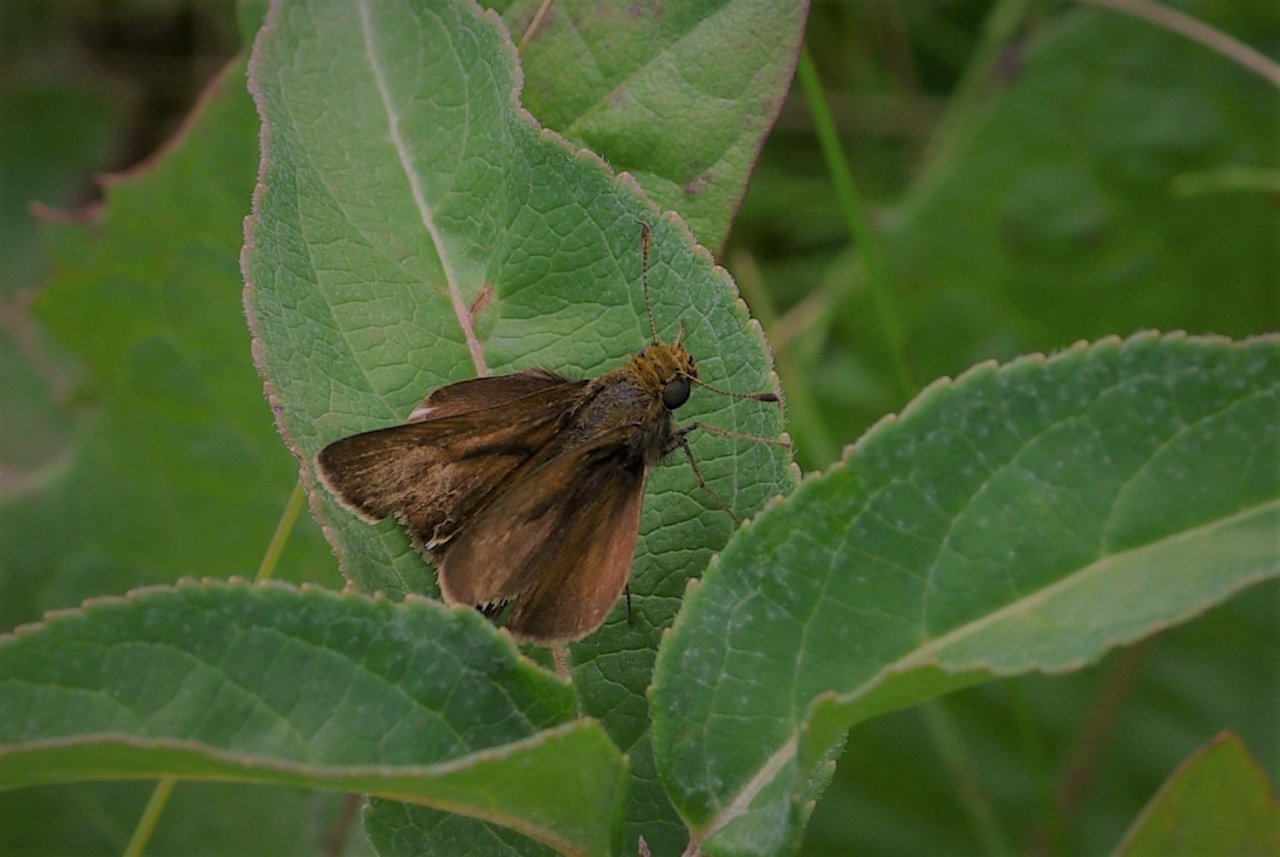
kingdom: Animalia
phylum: Arthropoda
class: Insecta
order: Lepidoptera
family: Hesperiidae
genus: Euphyes
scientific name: Euphyes vestris
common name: Dun Skipper
